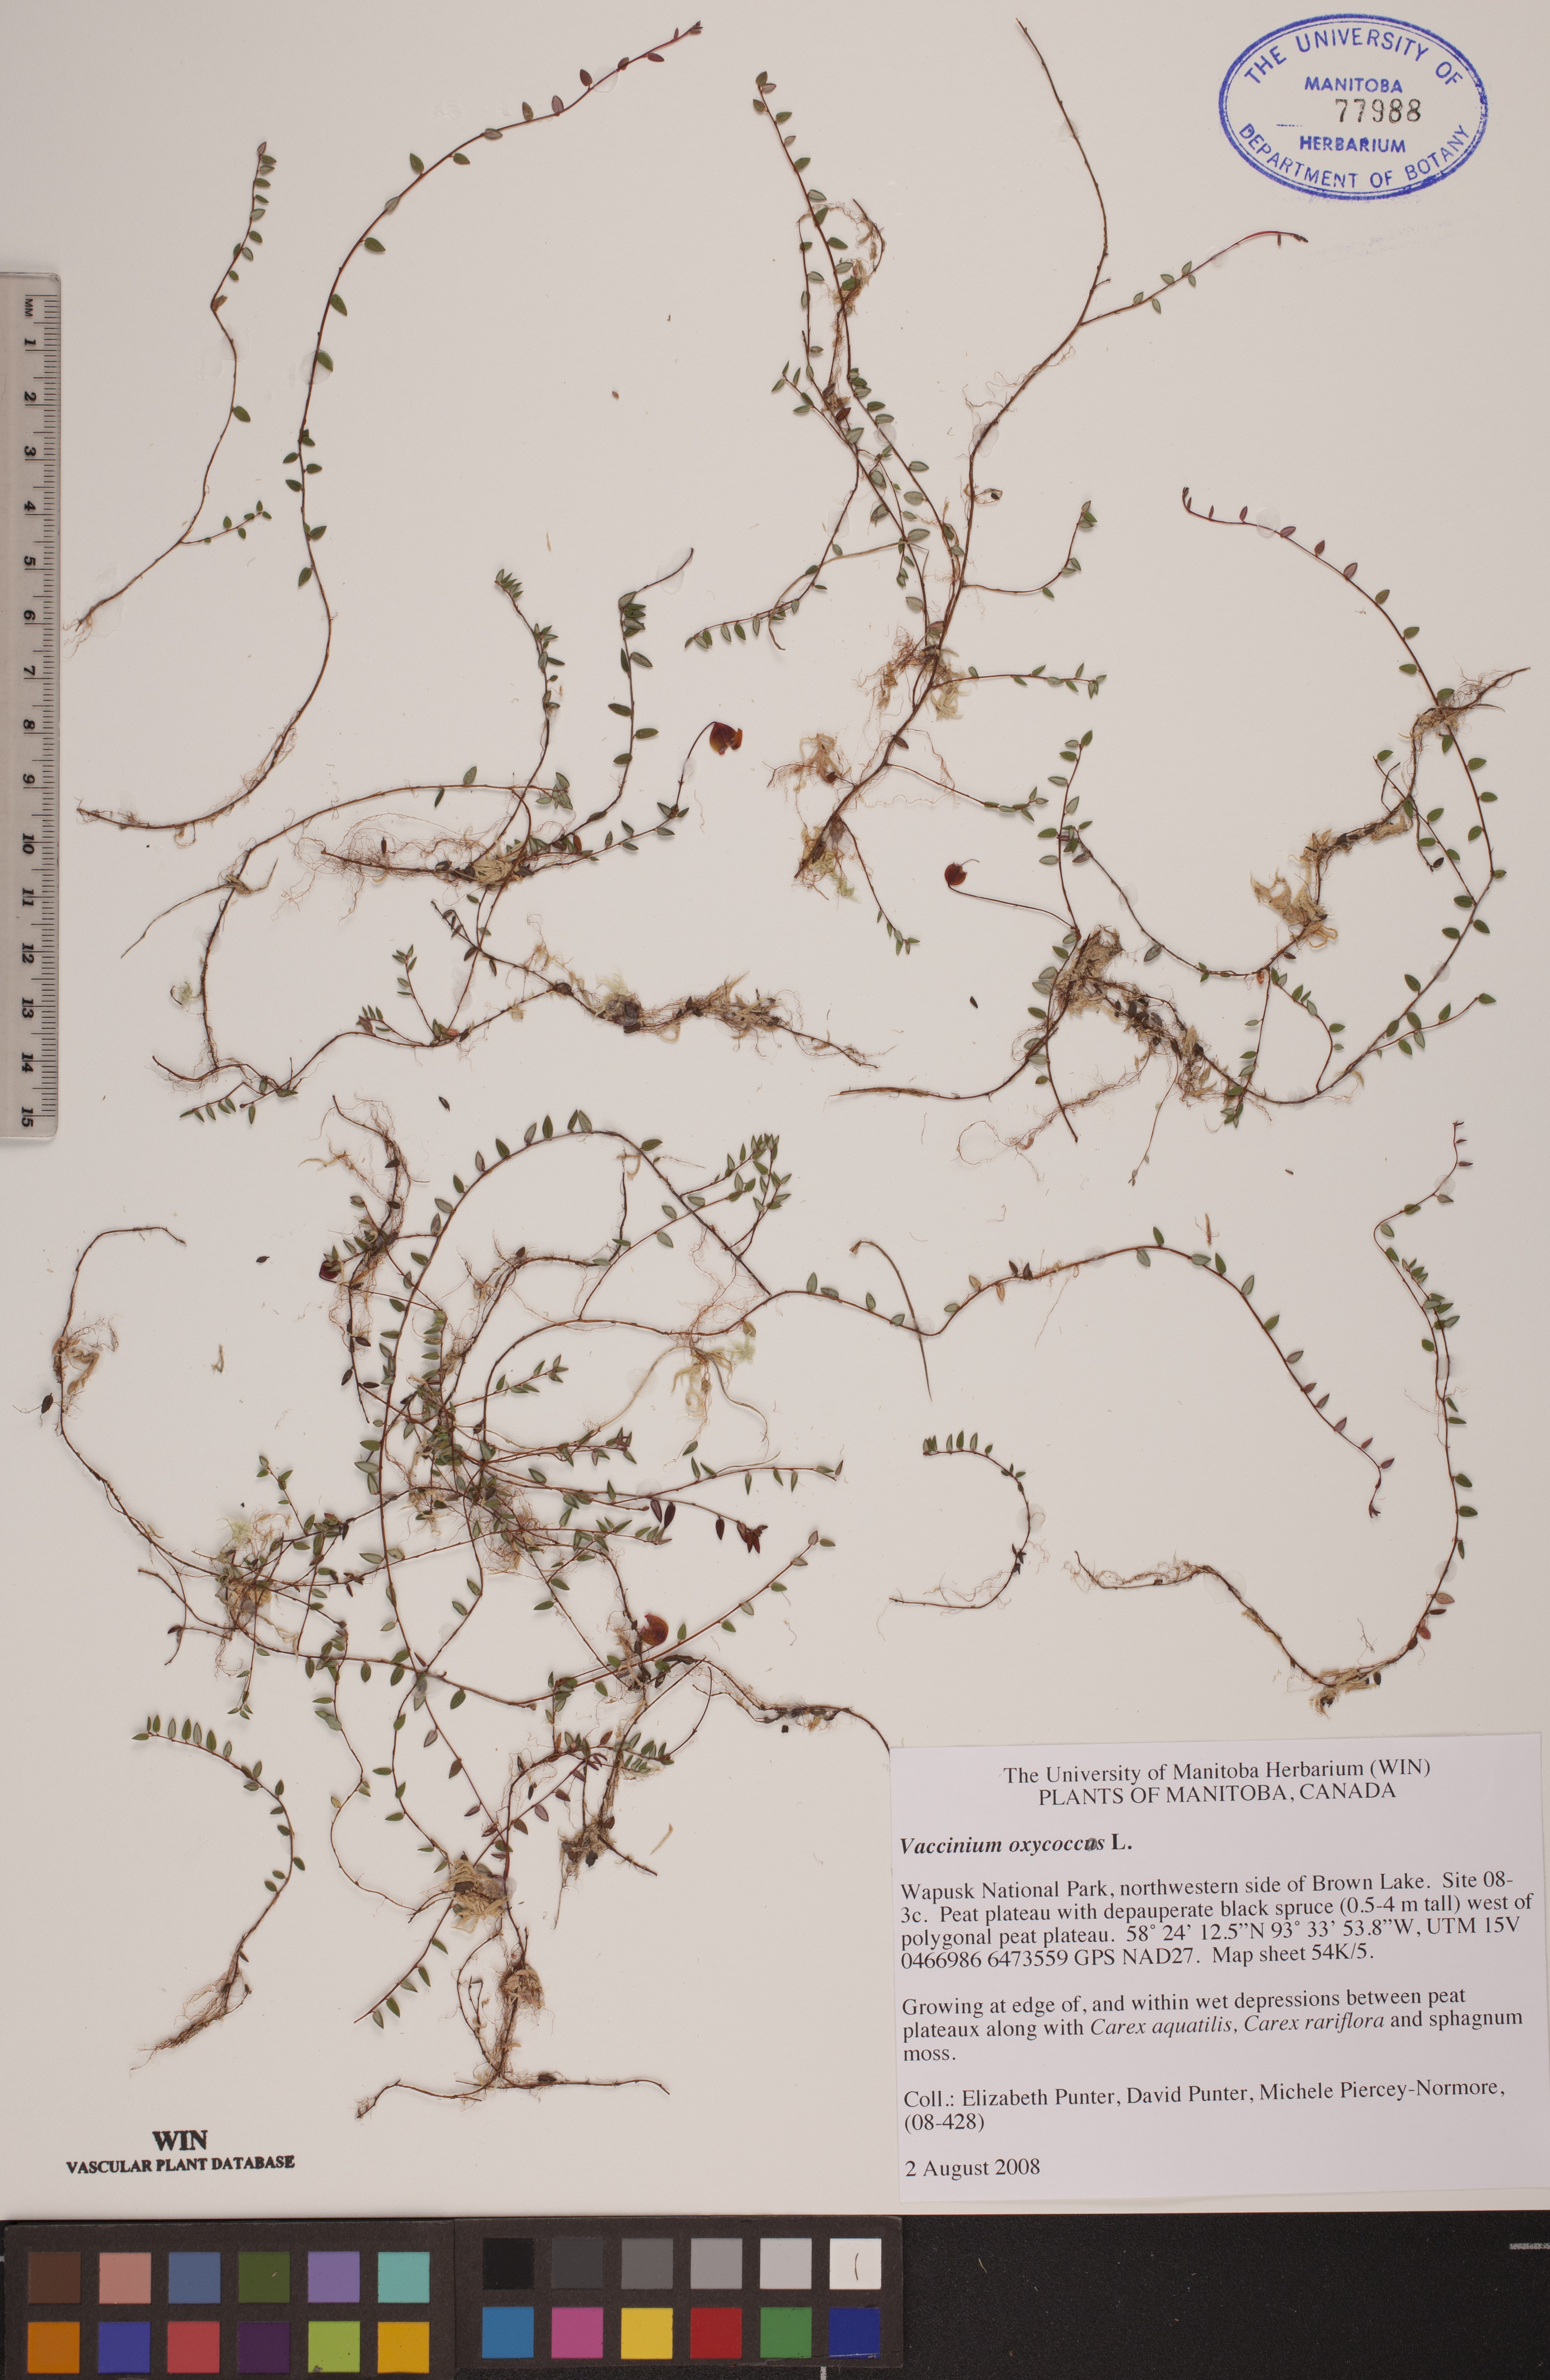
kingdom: Plantae
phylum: Tracheophyta
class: Magnoliopsida
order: Ericales
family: Ericaceae
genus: Vaccinium
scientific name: Vaccinium oxycoccos
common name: Cranberry
